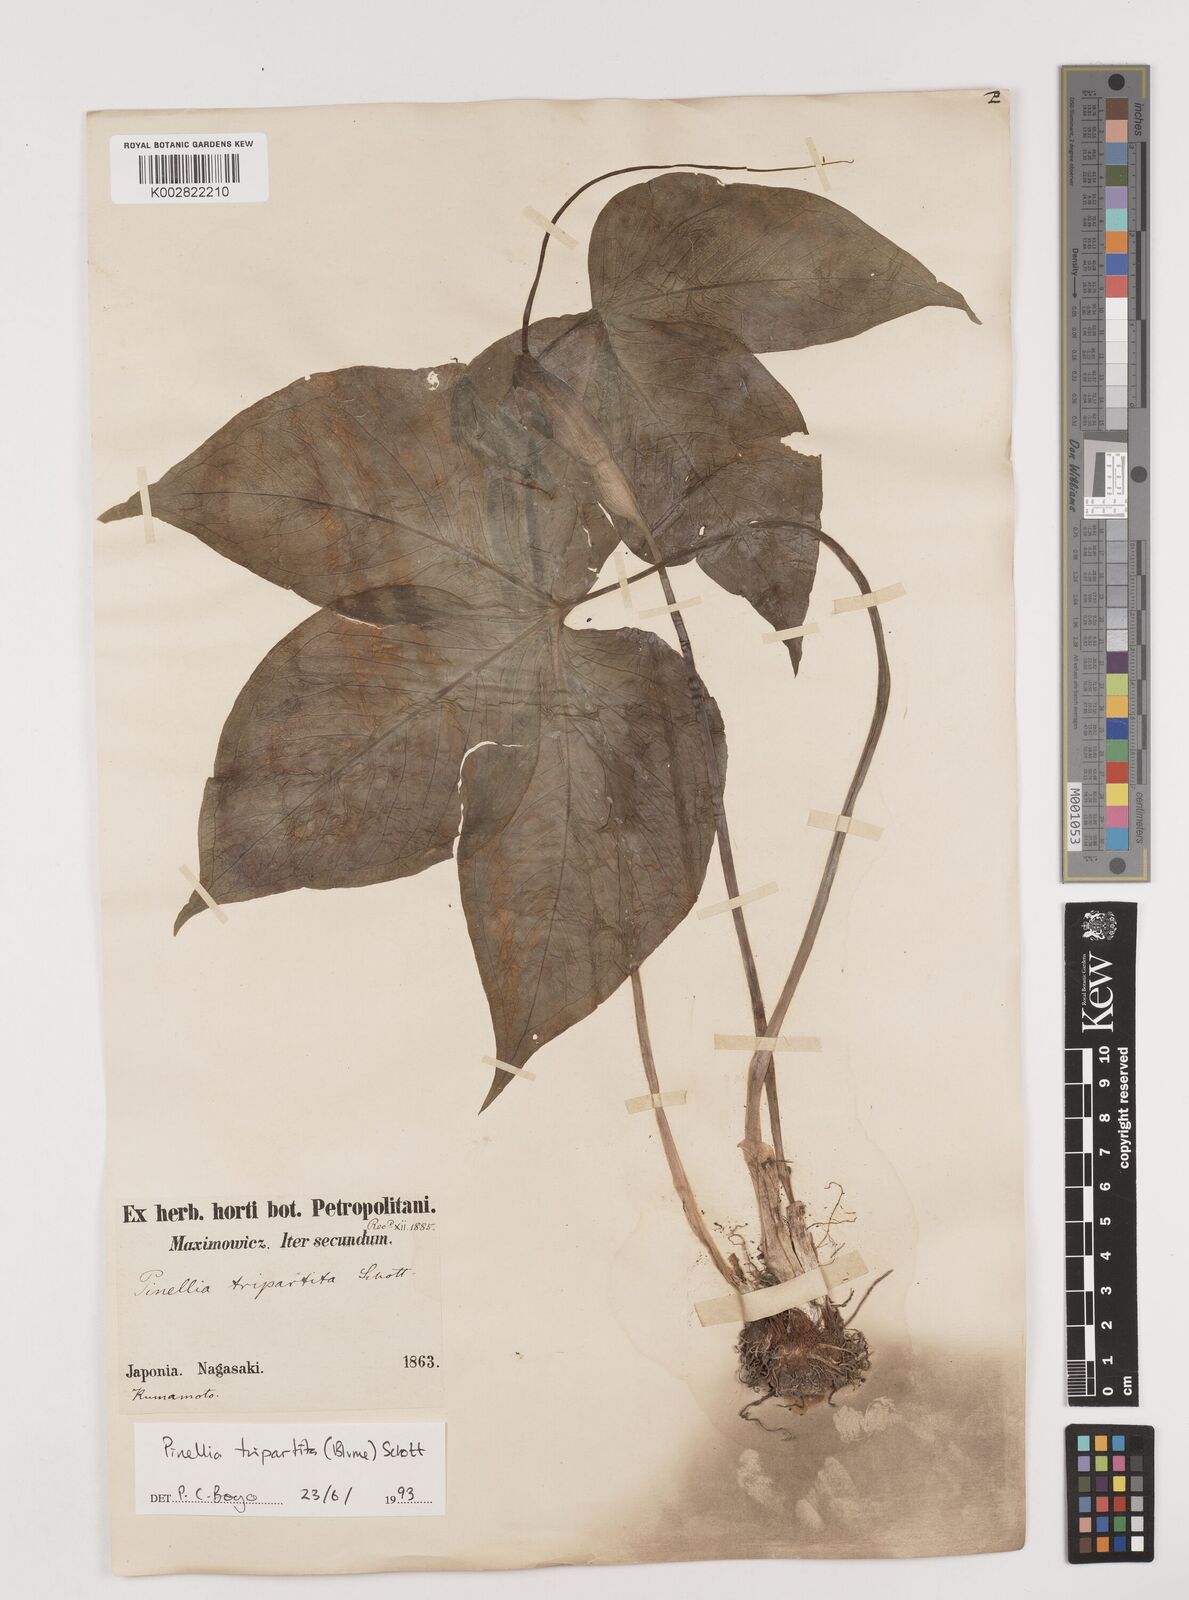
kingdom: Plantae
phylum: Tracheophyta
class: Liliopsida
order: Alismatales
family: Araceae
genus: Pinellia
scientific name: Pinellia tripartita
